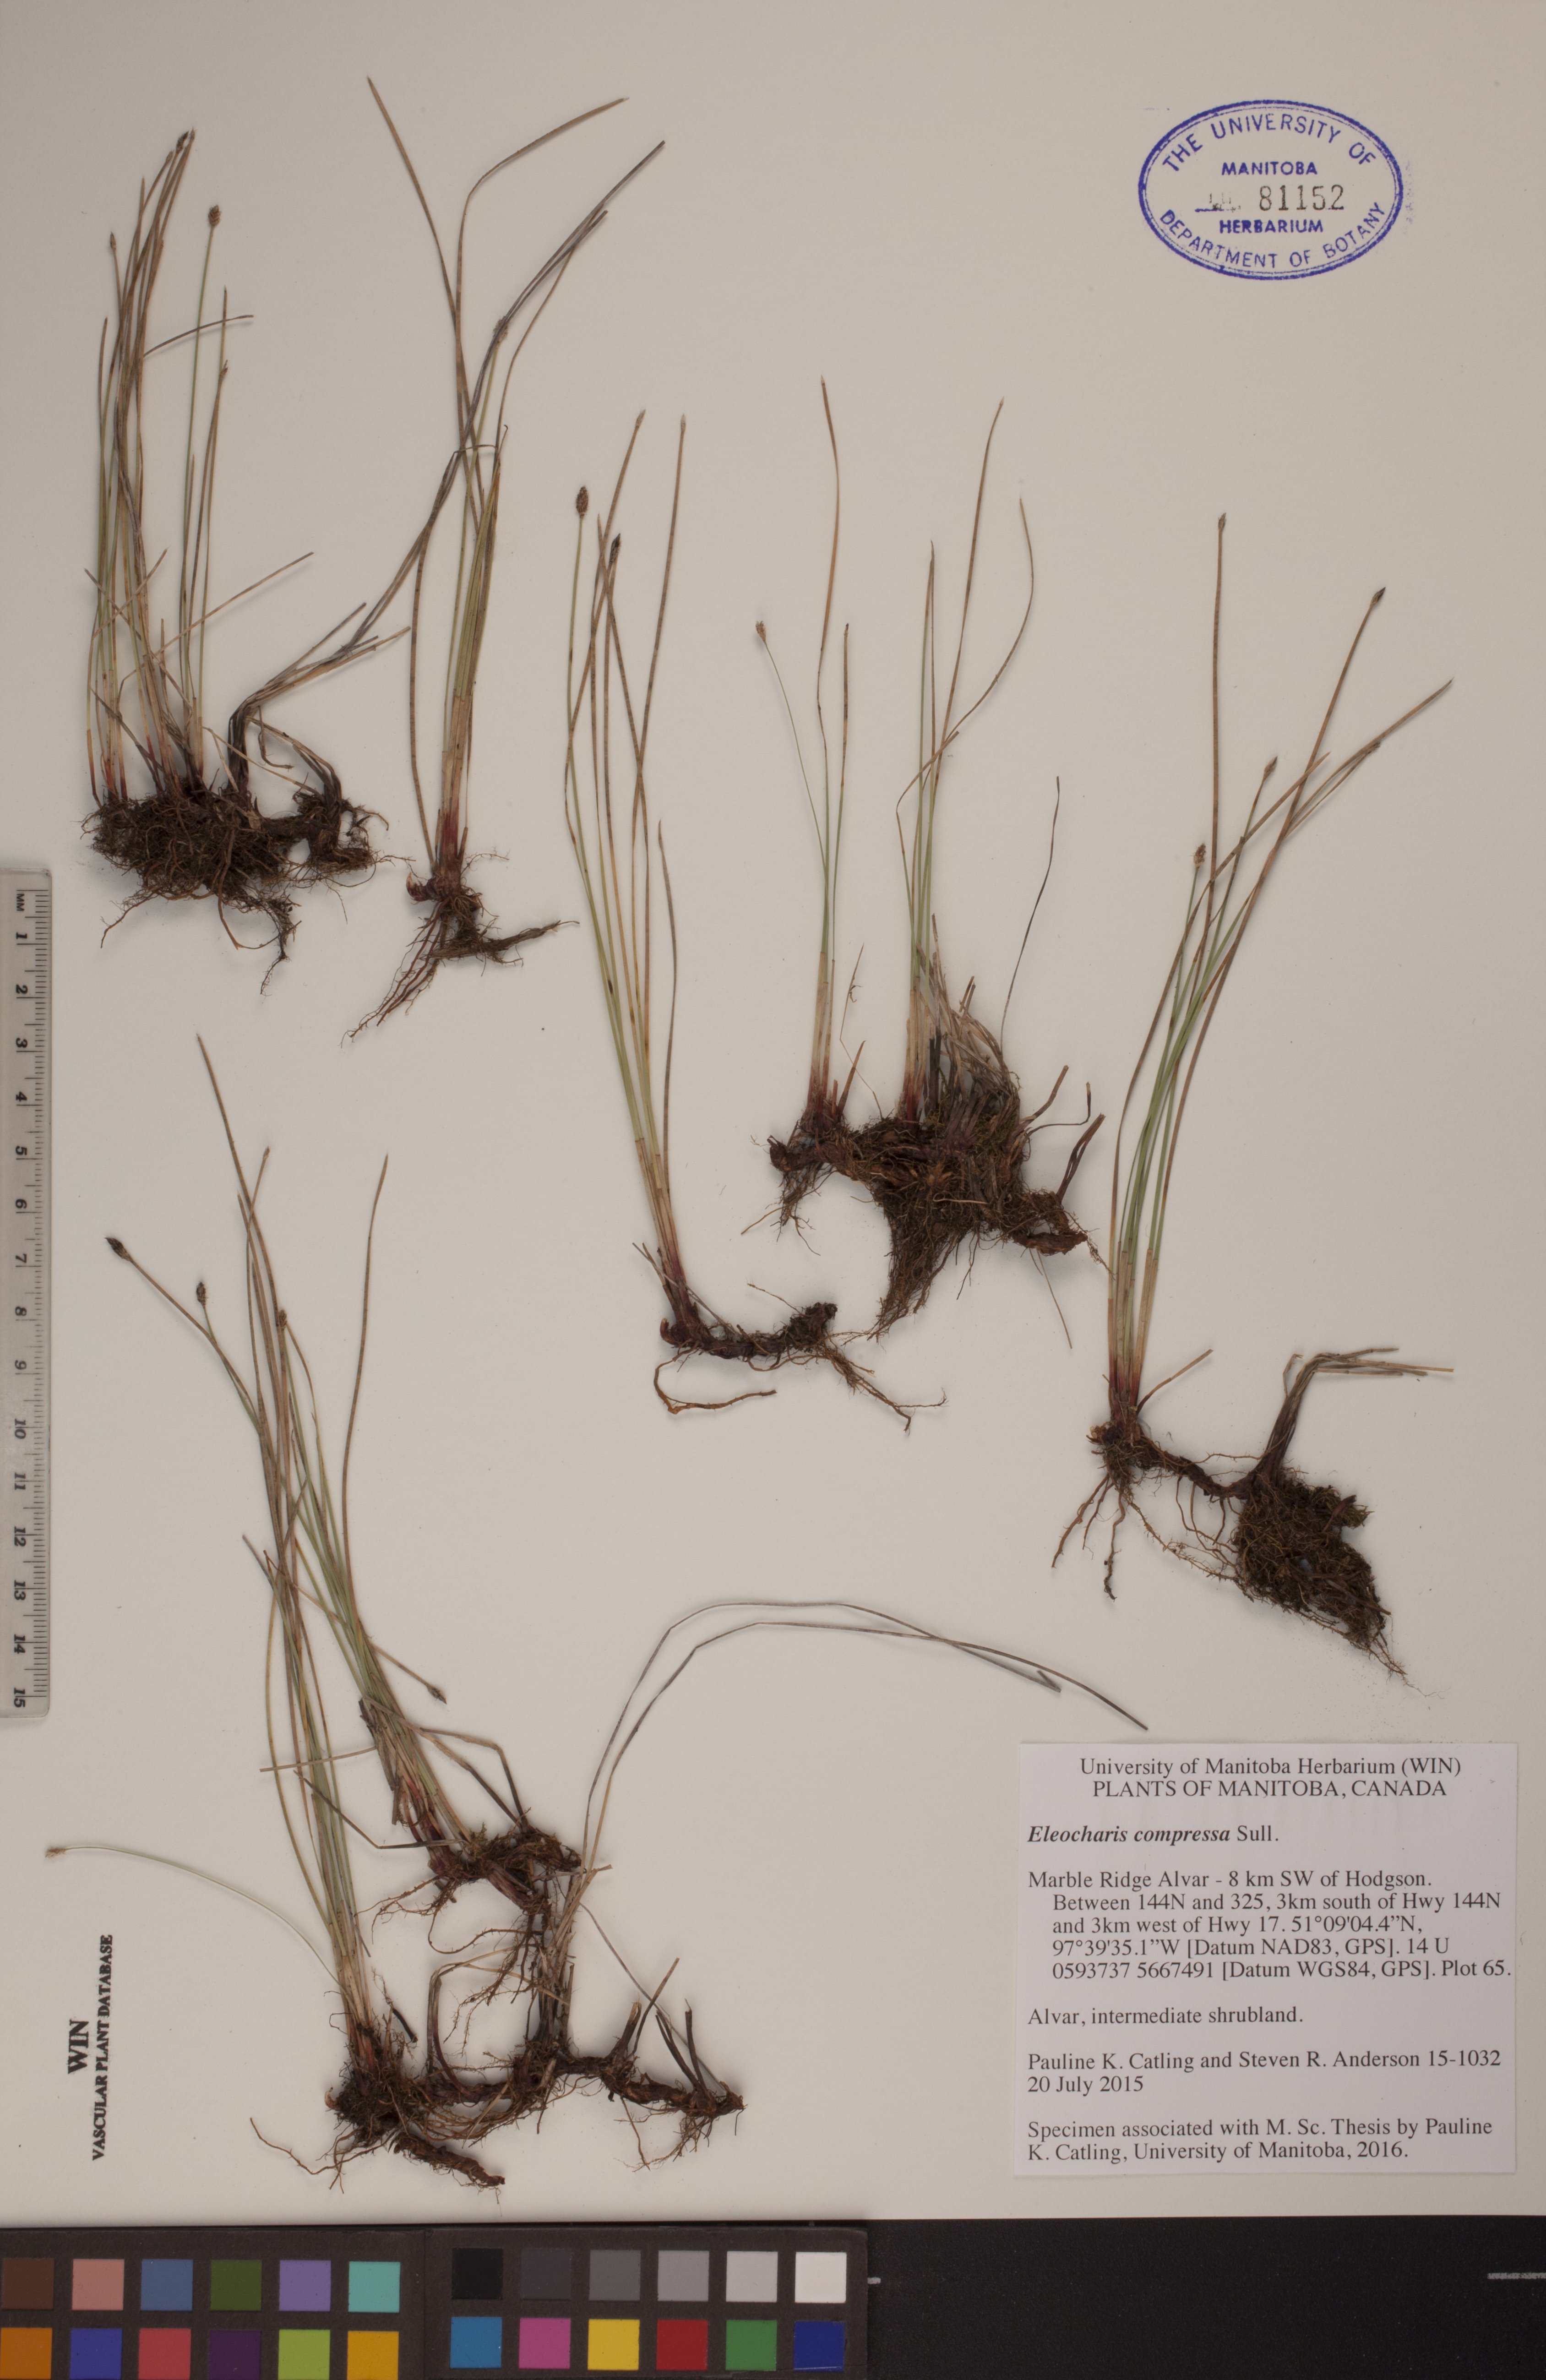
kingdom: Plantae
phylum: Tracheophyta
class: Liliopsida
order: Poales
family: Cyperaceae
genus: Eleocharis
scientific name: Eleocharis compressa
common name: Flat-stem spike-rush
